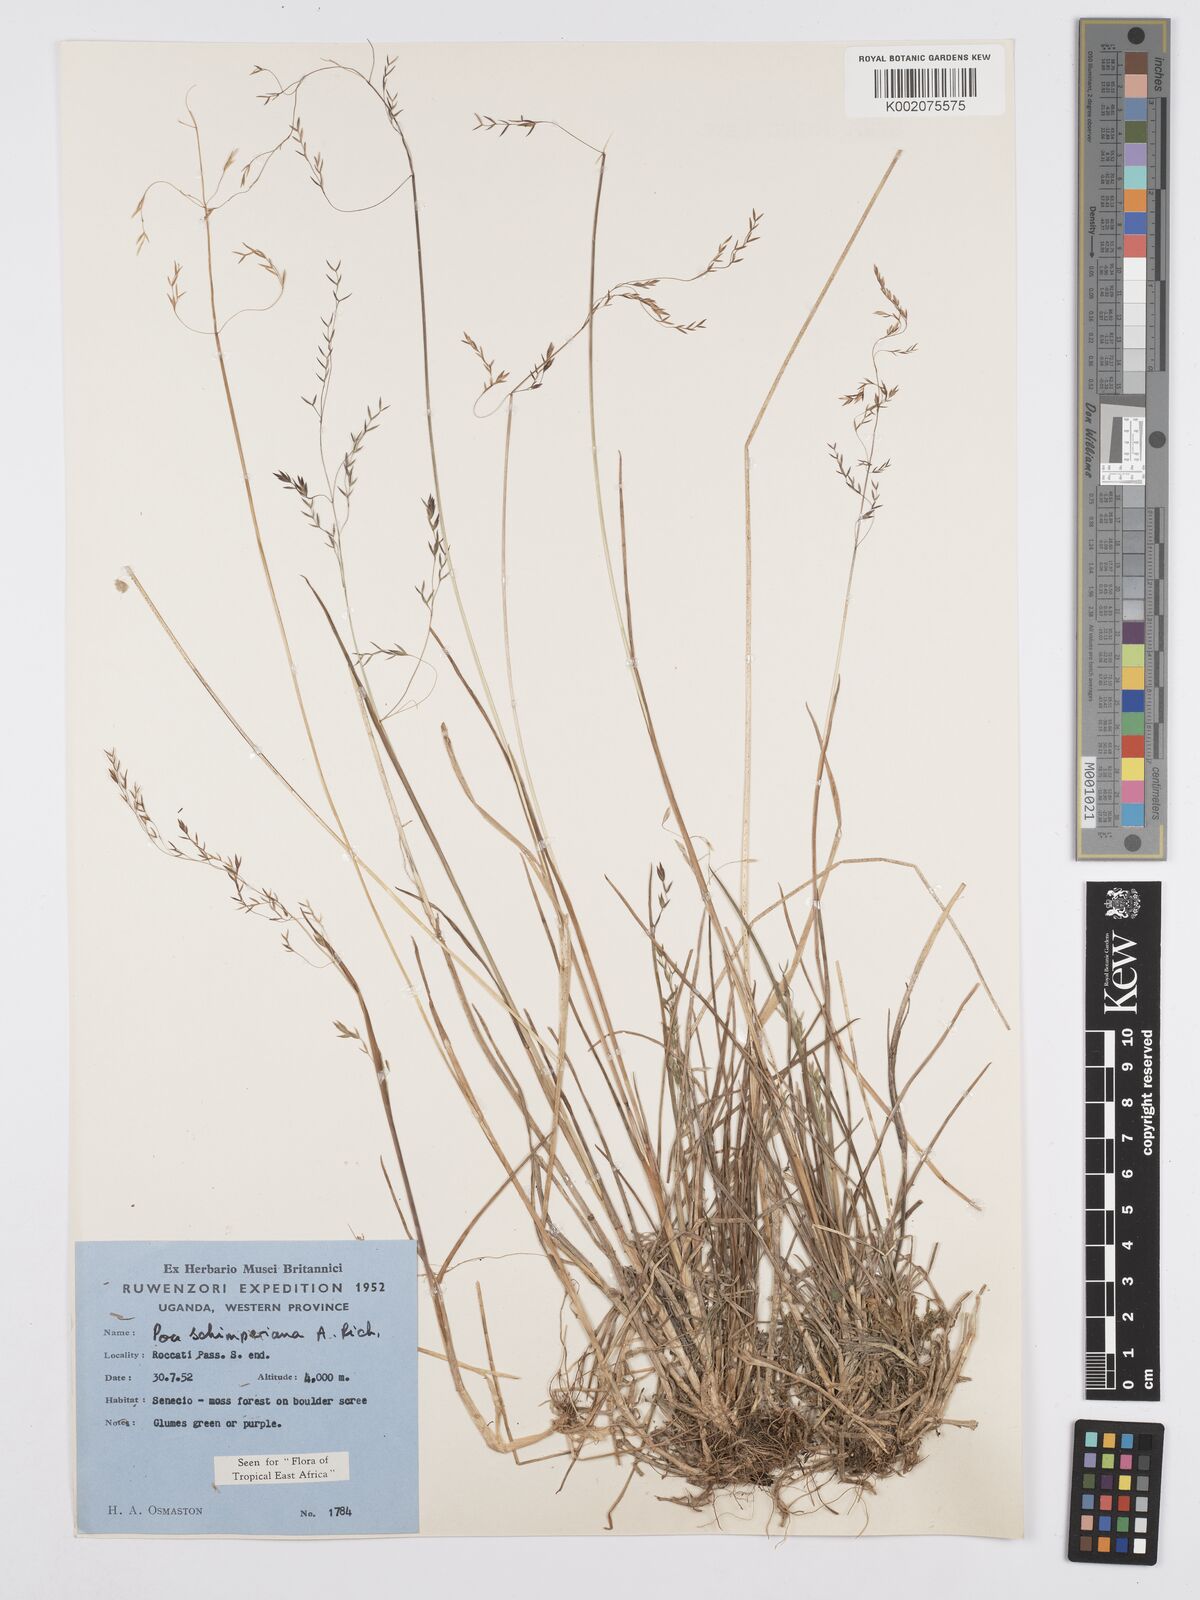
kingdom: Plantae
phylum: Tracheophyta
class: Liliopsida
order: Poales
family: Poaceae
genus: Poa
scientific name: Poa schimperiana
